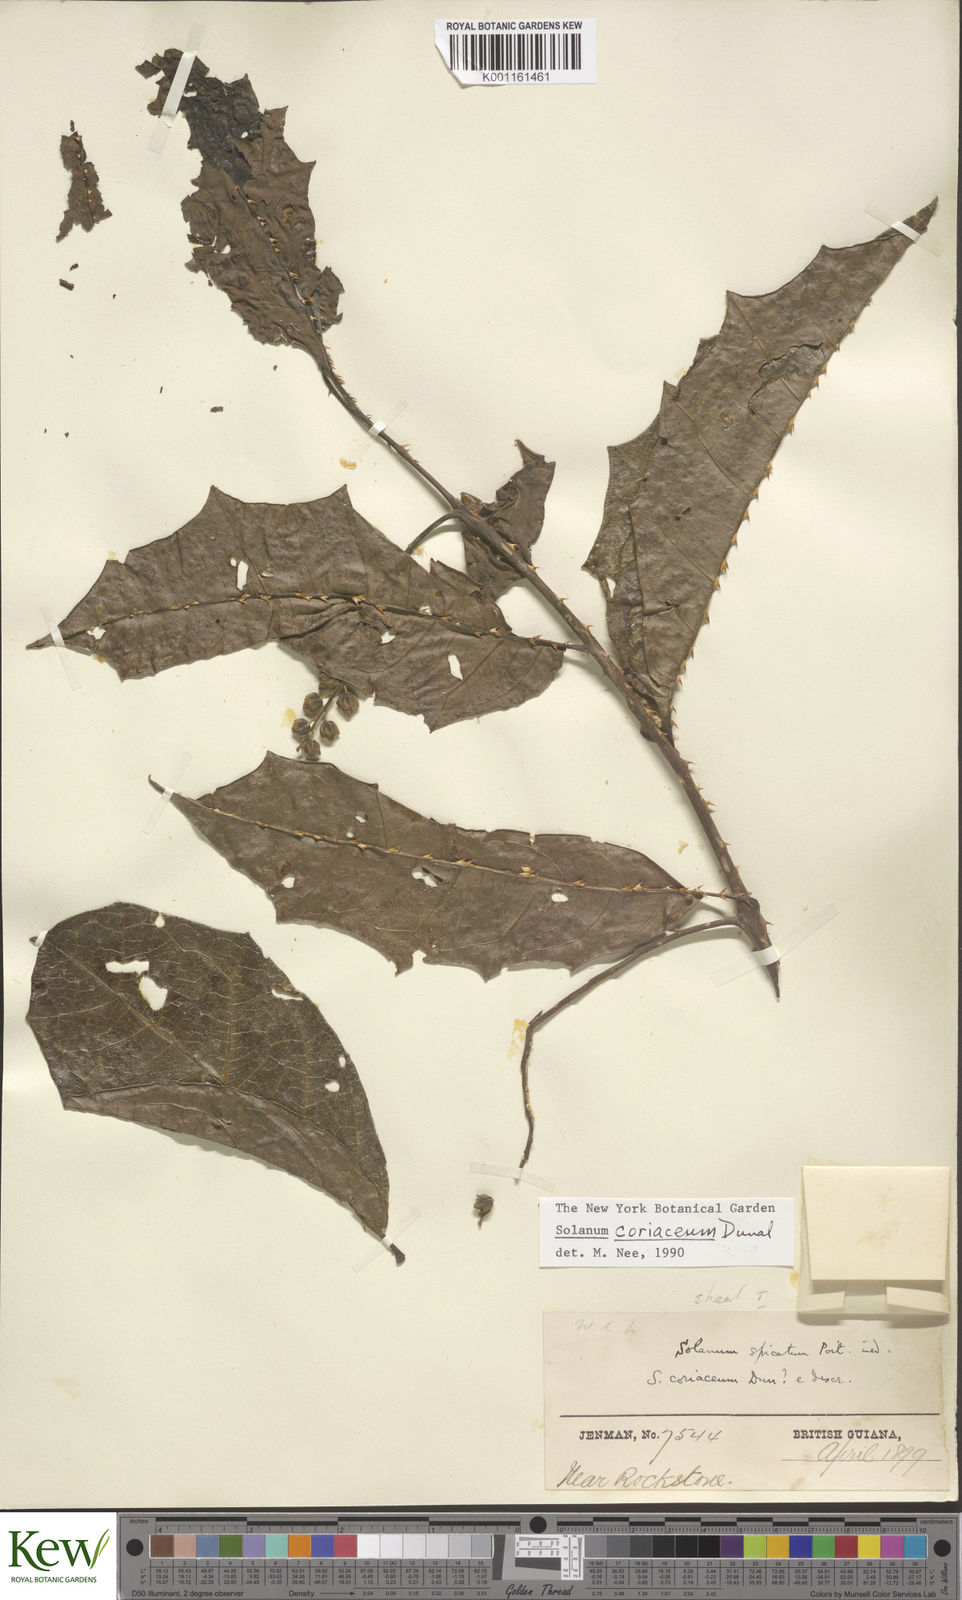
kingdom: Plantae
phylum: Tracheophyta
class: Magnoliopsida
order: Solanales
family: Solanaceae
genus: Solanum
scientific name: Solanum coriaceum
